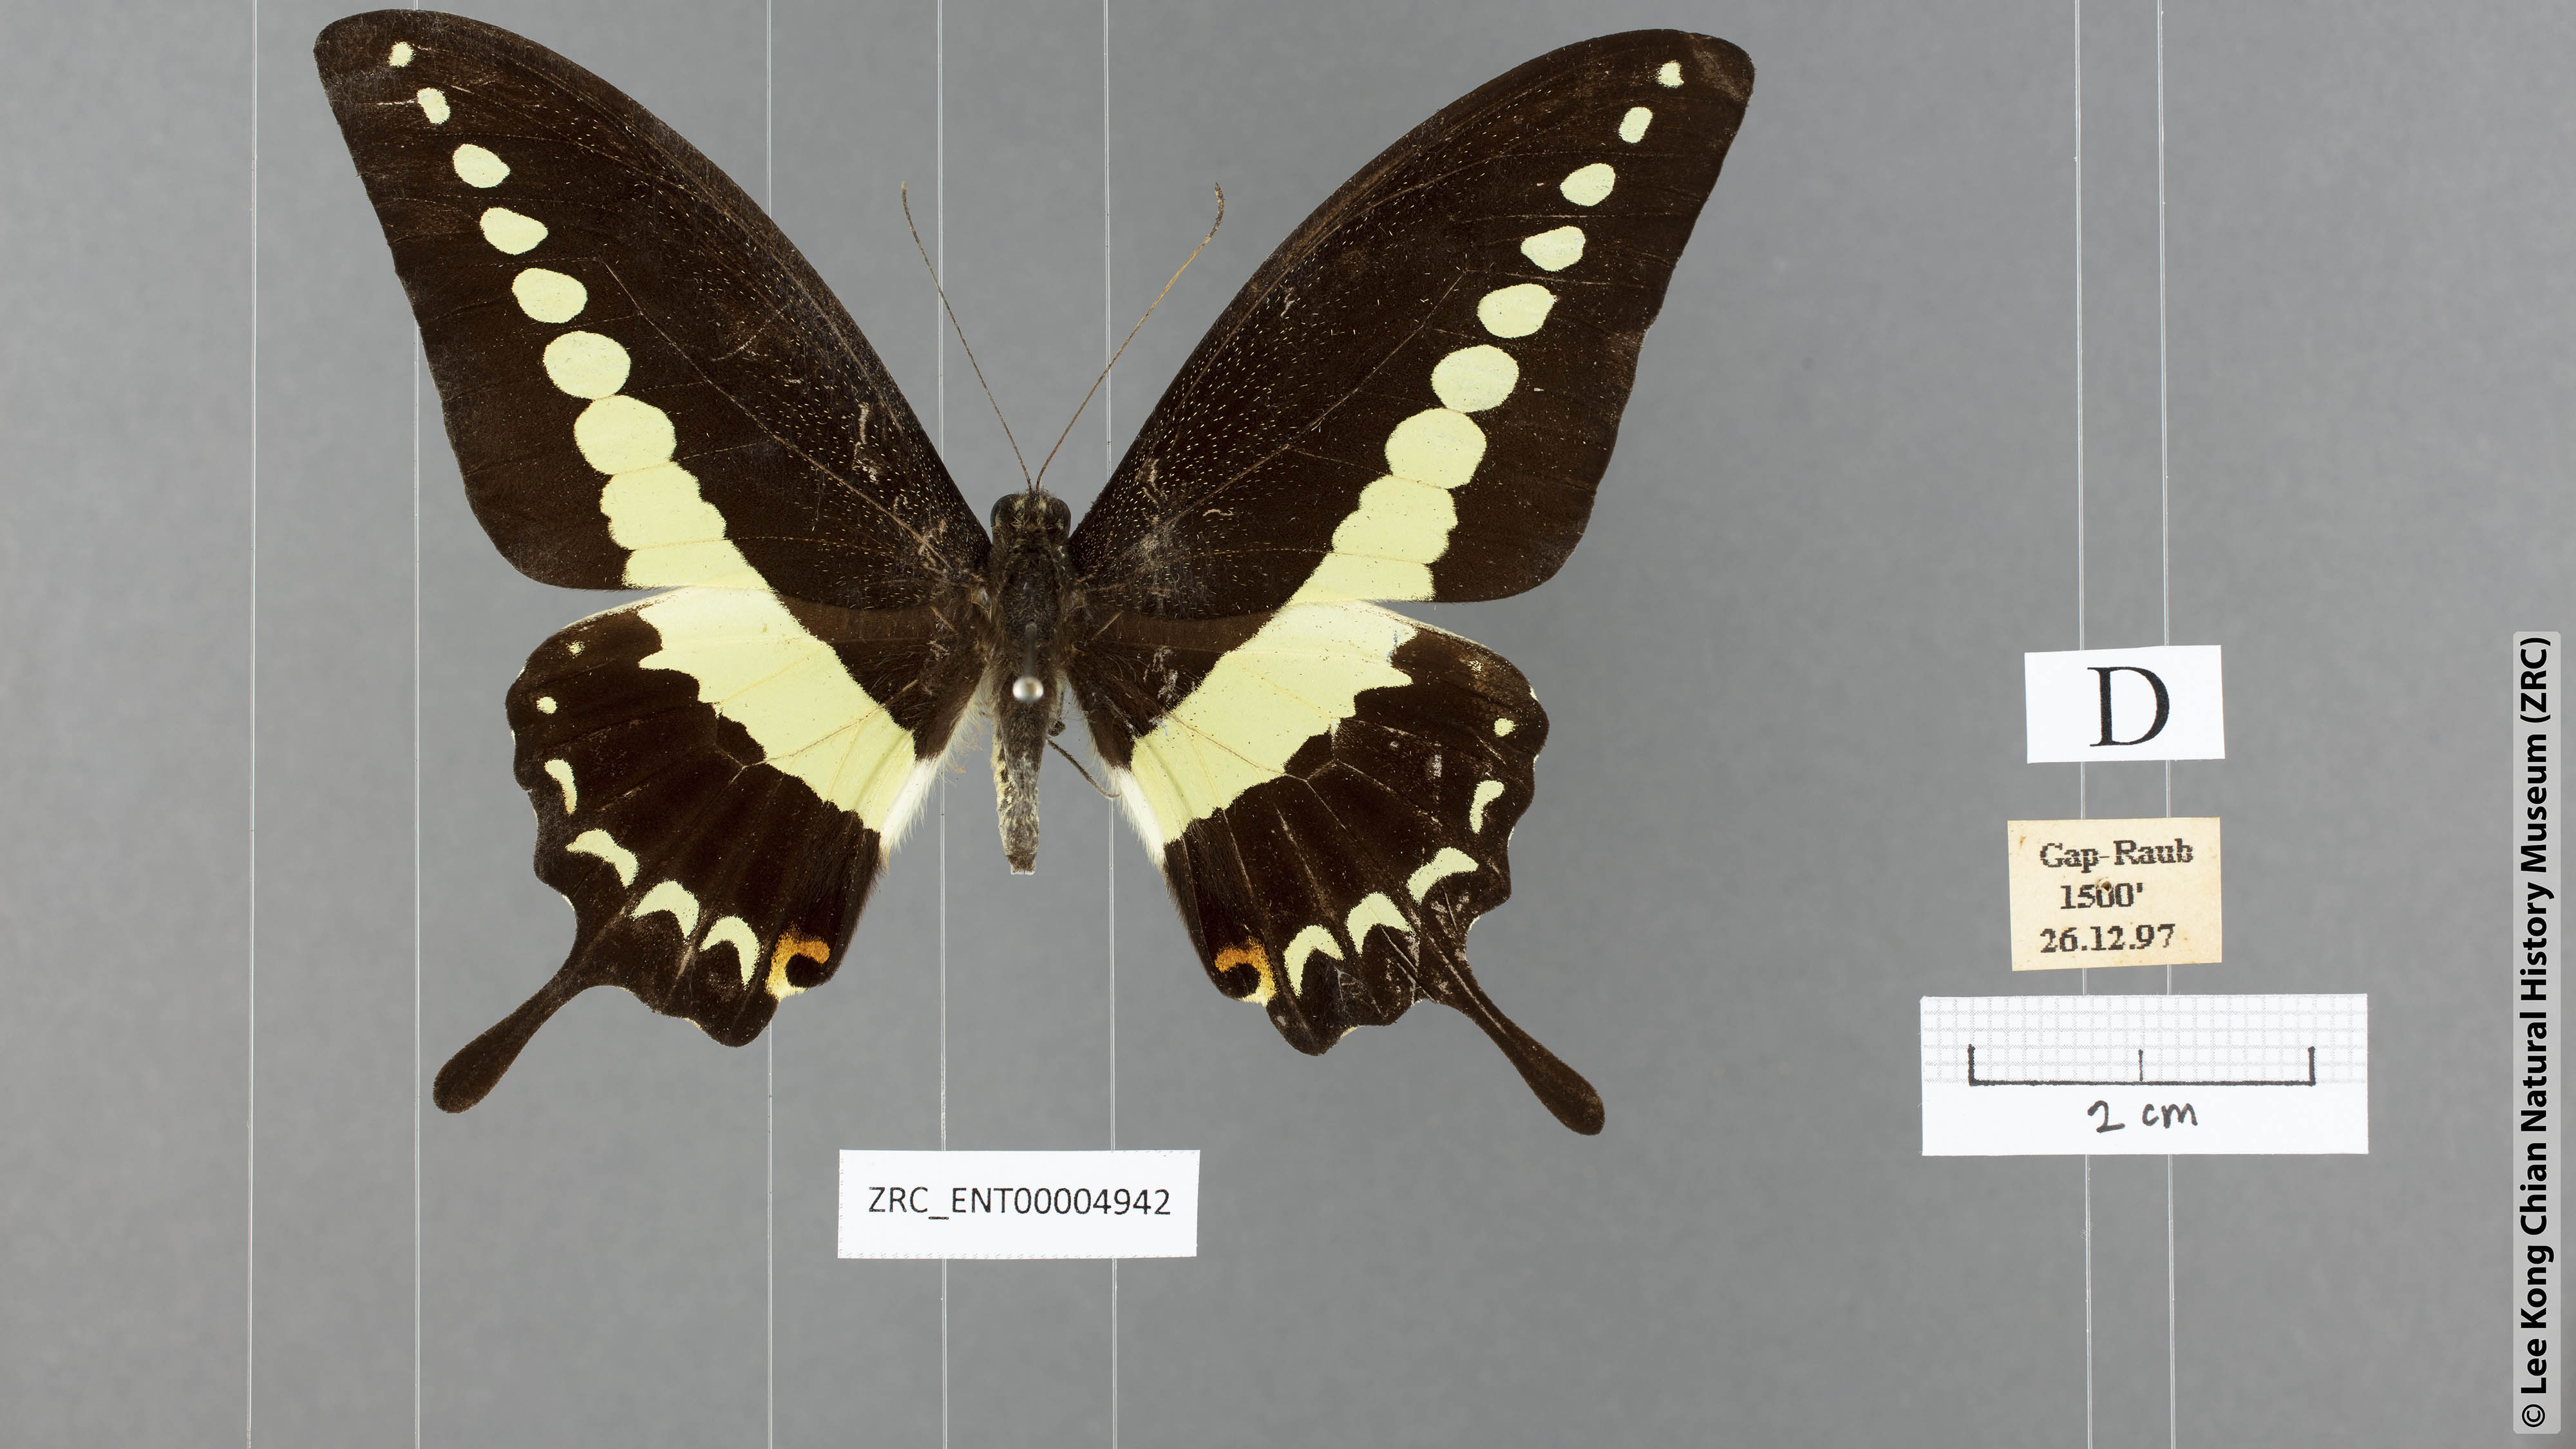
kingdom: Animalia
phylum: Arthropoda
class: Insecta
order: Lepidoptera
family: Papilionidae
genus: Papilio
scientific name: Papilio demolion
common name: Banded swallowtail
